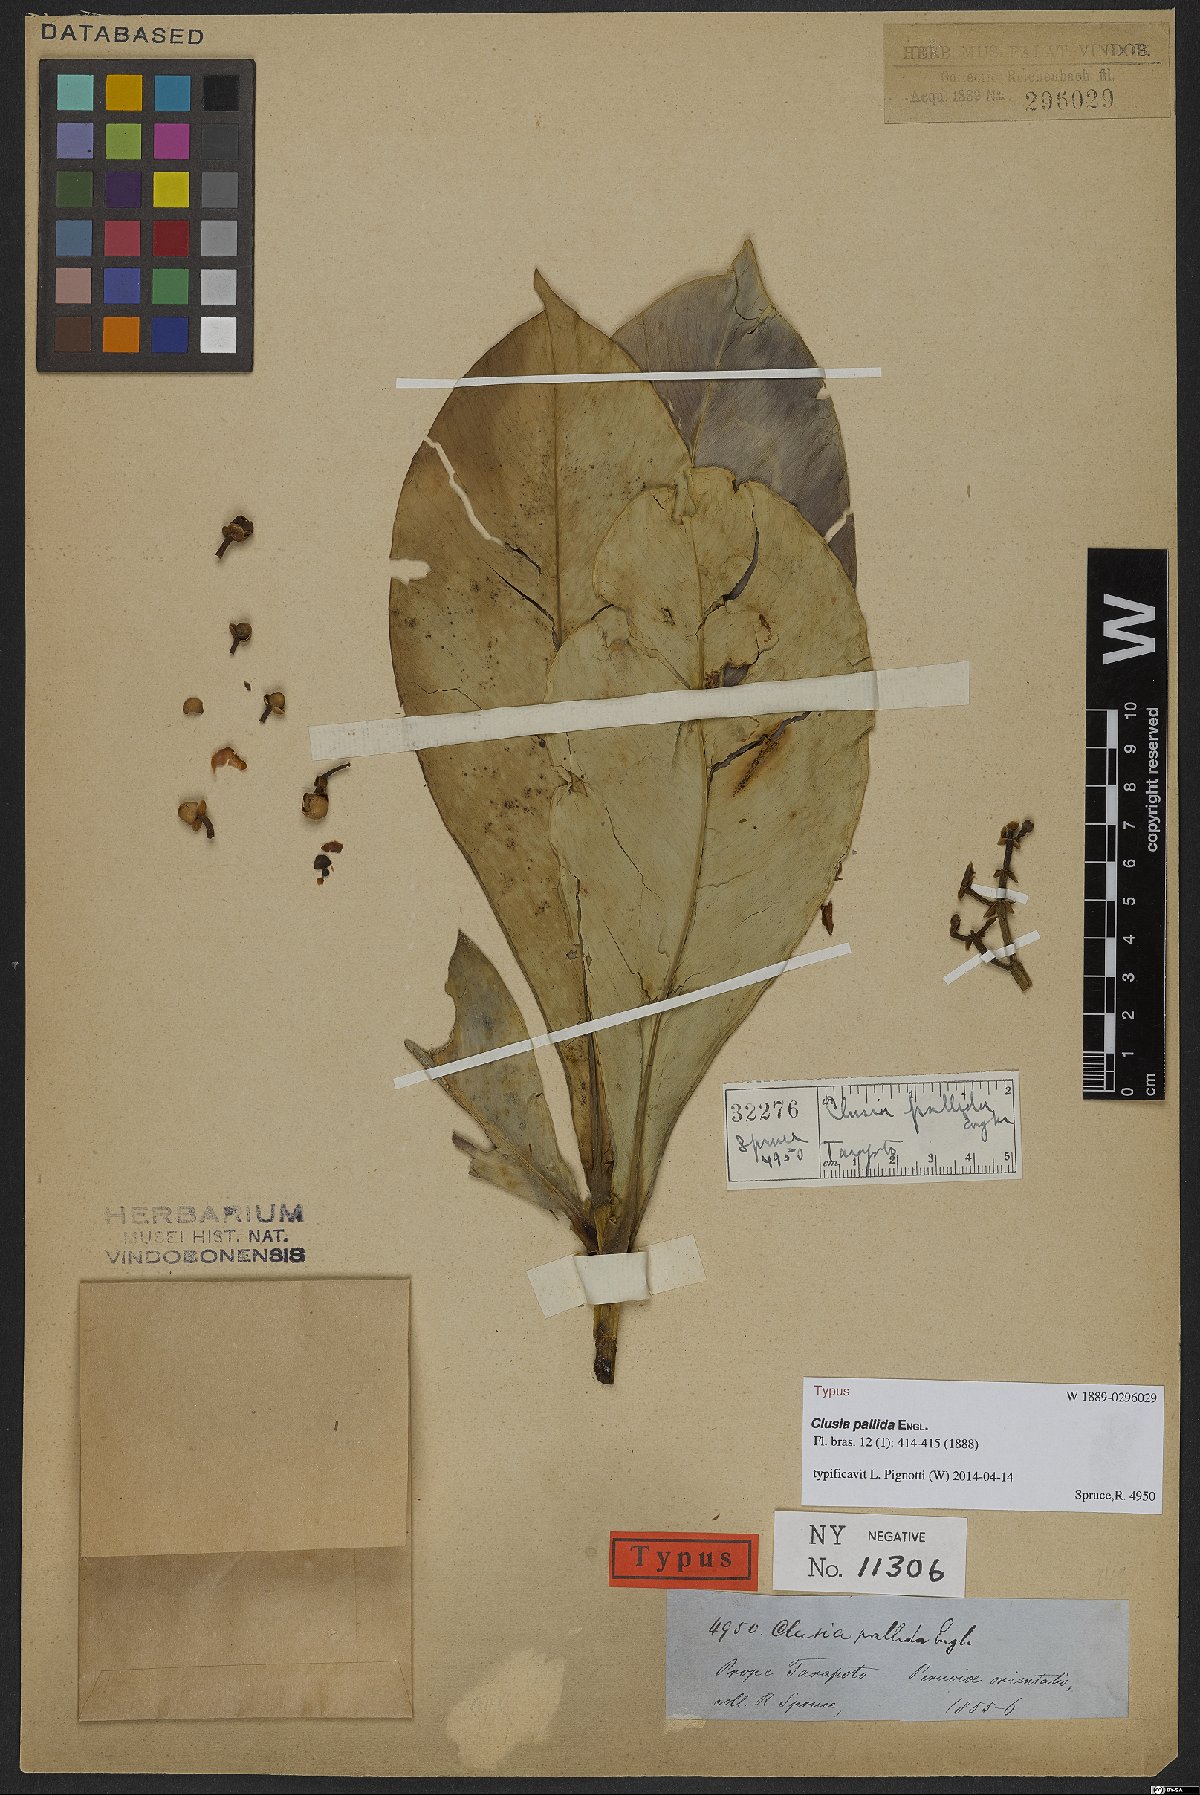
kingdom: Plantae
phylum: Tracheophyta
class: Magnoliopsida
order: Malpighiales
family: Clusiaceae
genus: Clusia
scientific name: Clusia pallida
